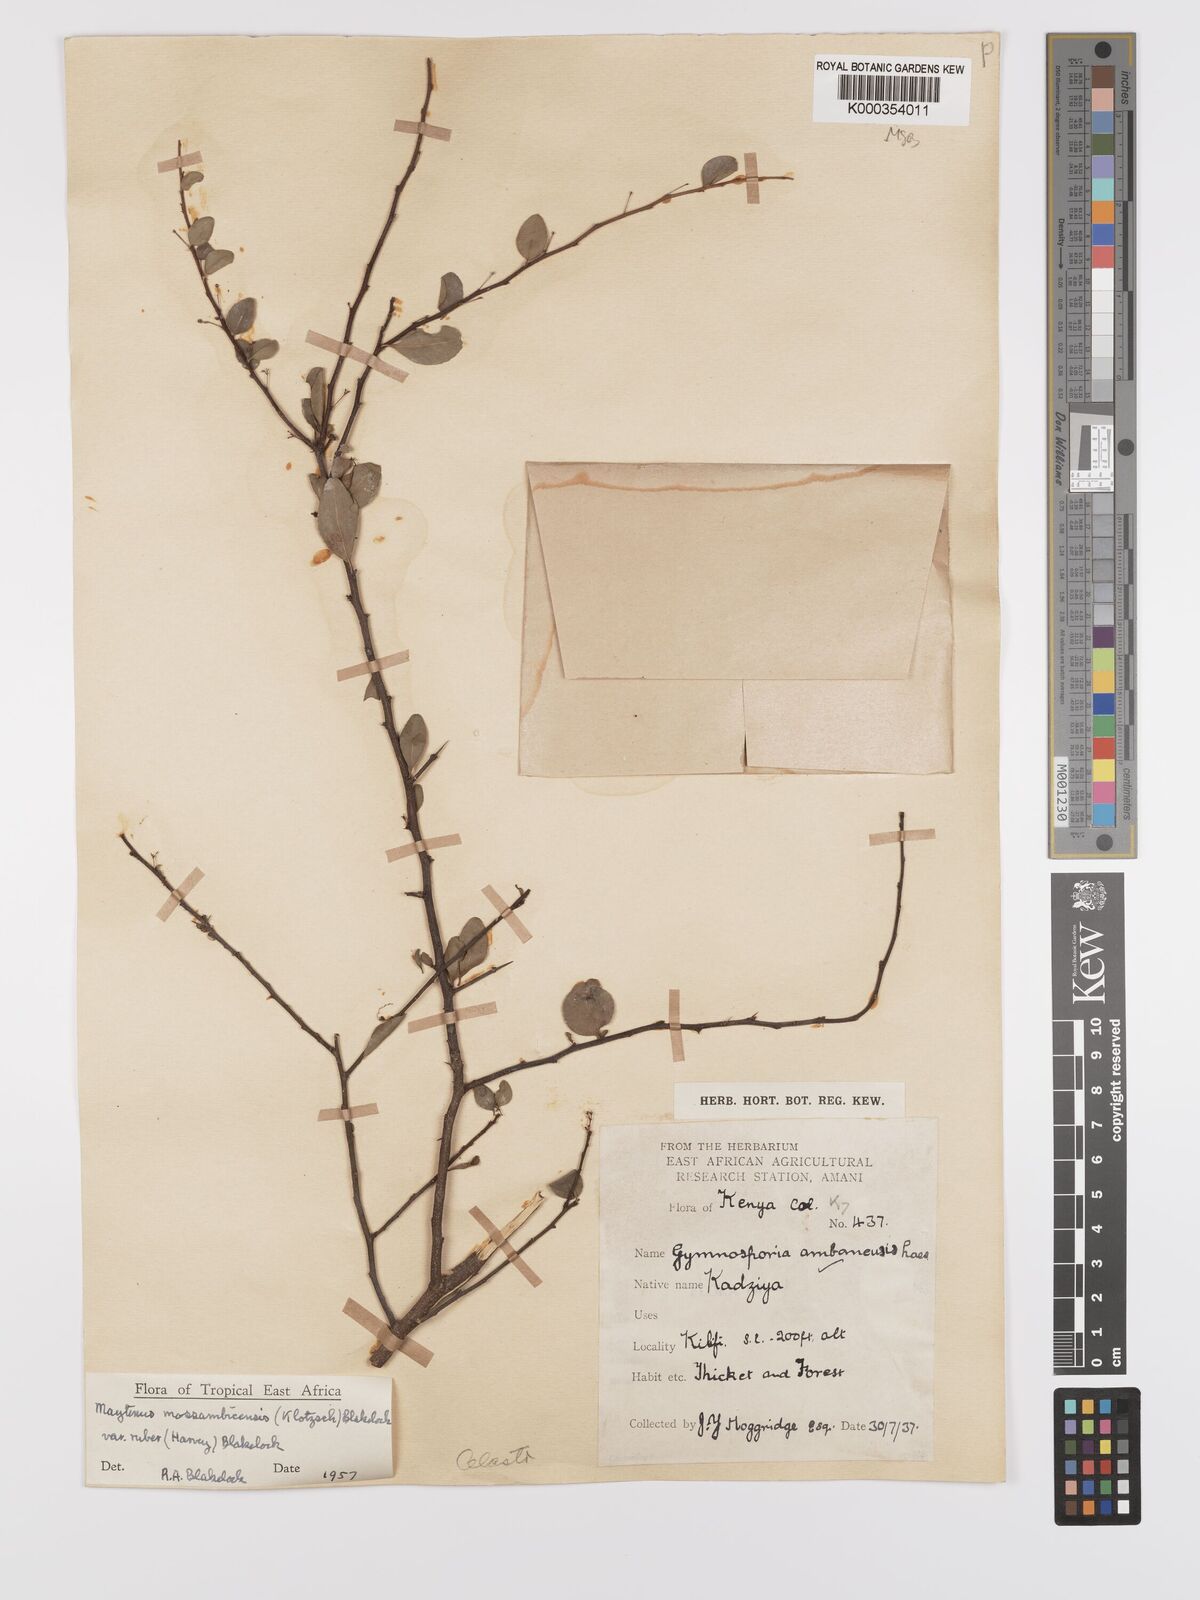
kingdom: Plantae
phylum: Tracheophyta
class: Magnoliopsida
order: Celastrales
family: Celastraceae
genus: Gymnosporia
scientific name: Gymnosporia mossambicensis
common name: Black forest spike-thorn
